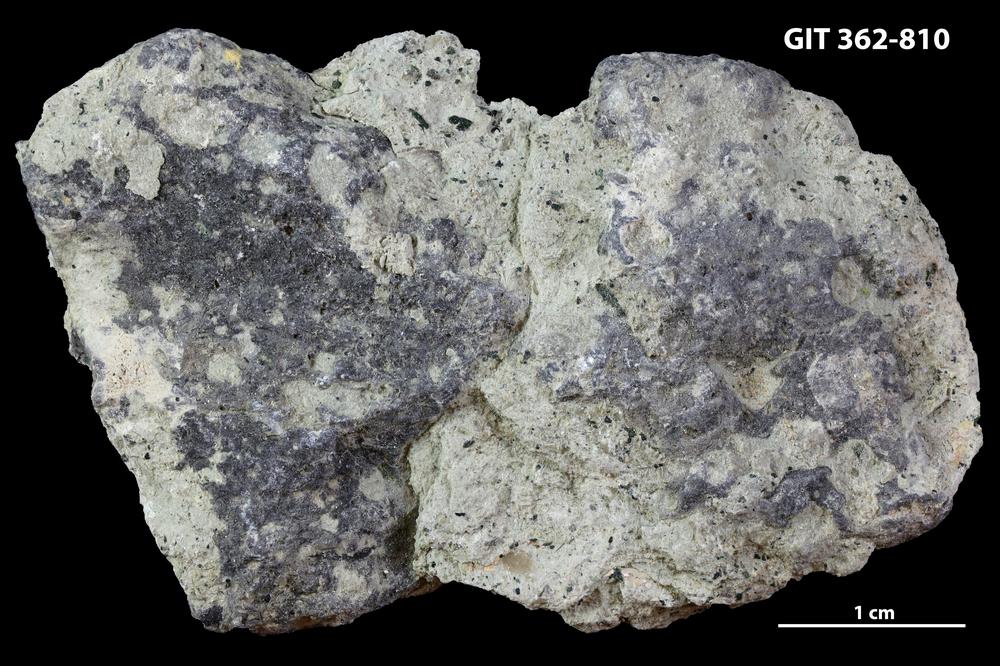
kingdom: Animalia
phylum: Sipuncula
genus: Trypanites
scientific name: Trypanites
